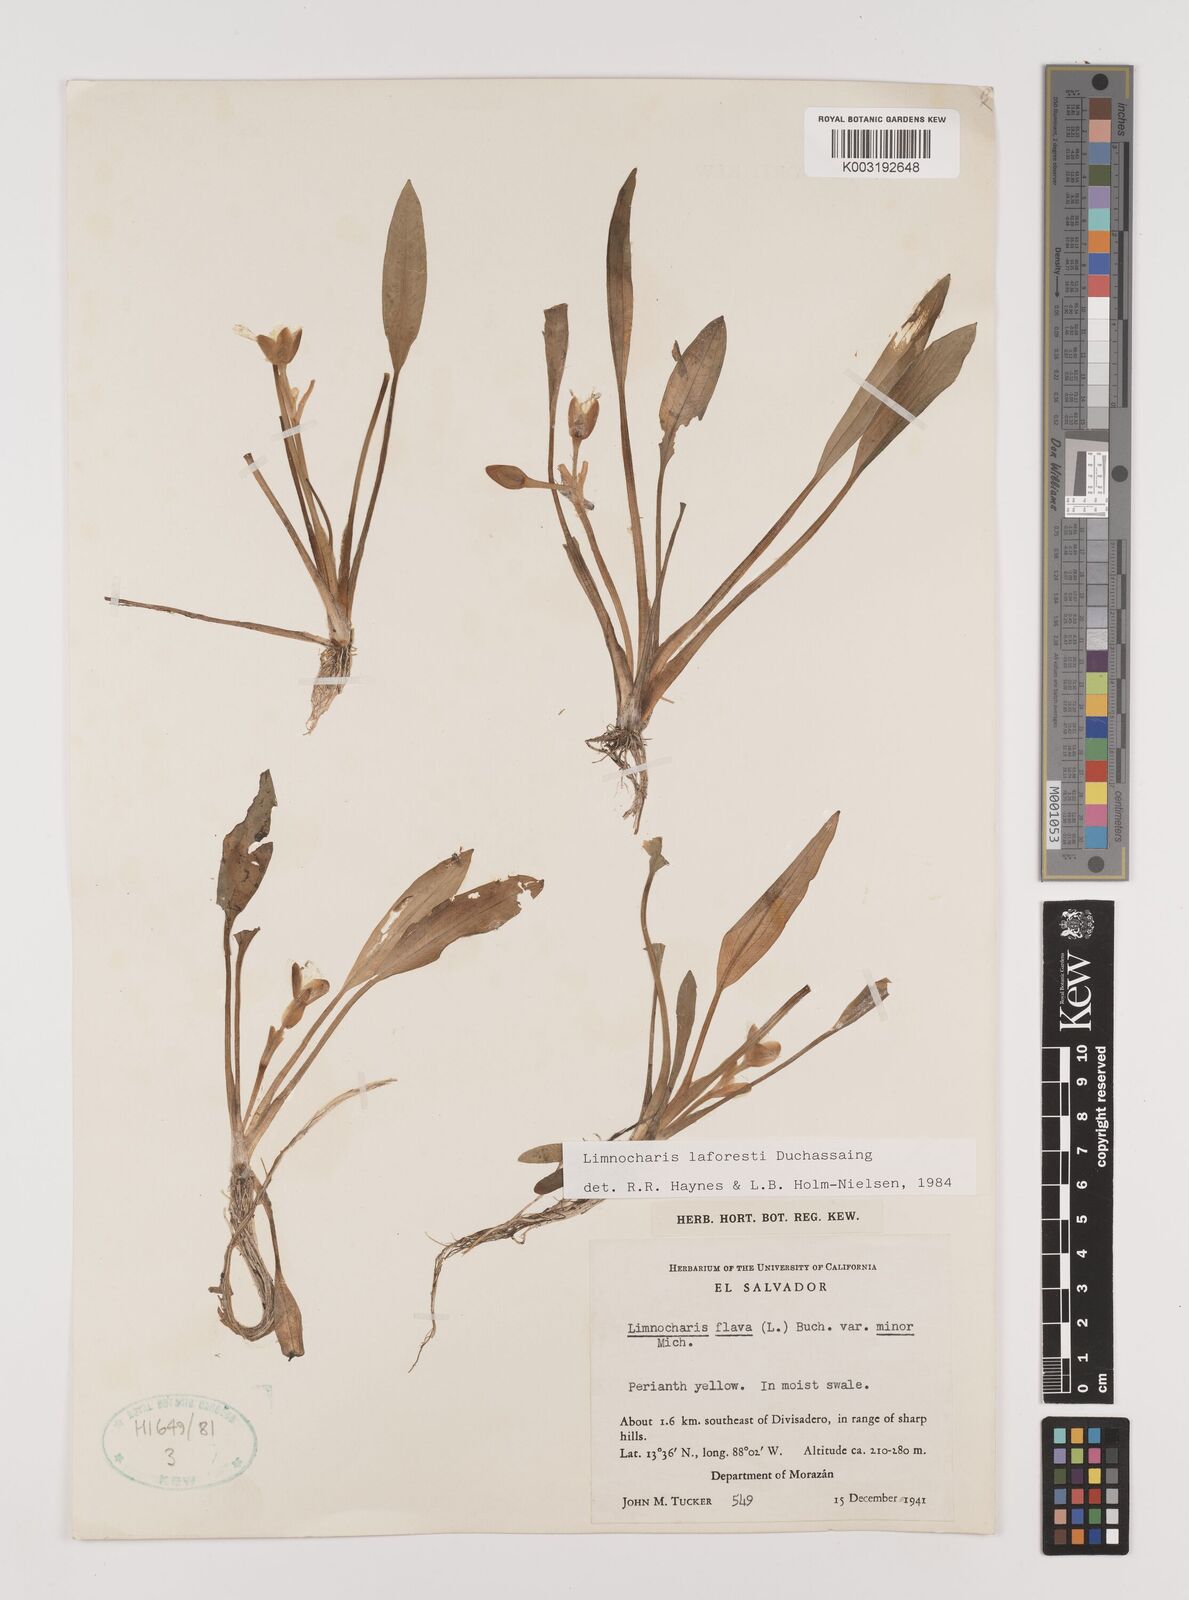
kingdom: Plantae
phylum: Tracheophyta
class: Liliopsida
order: Alismatales
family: Alismataceae
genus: Limnocharis
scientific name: Limnocharis laforestii
